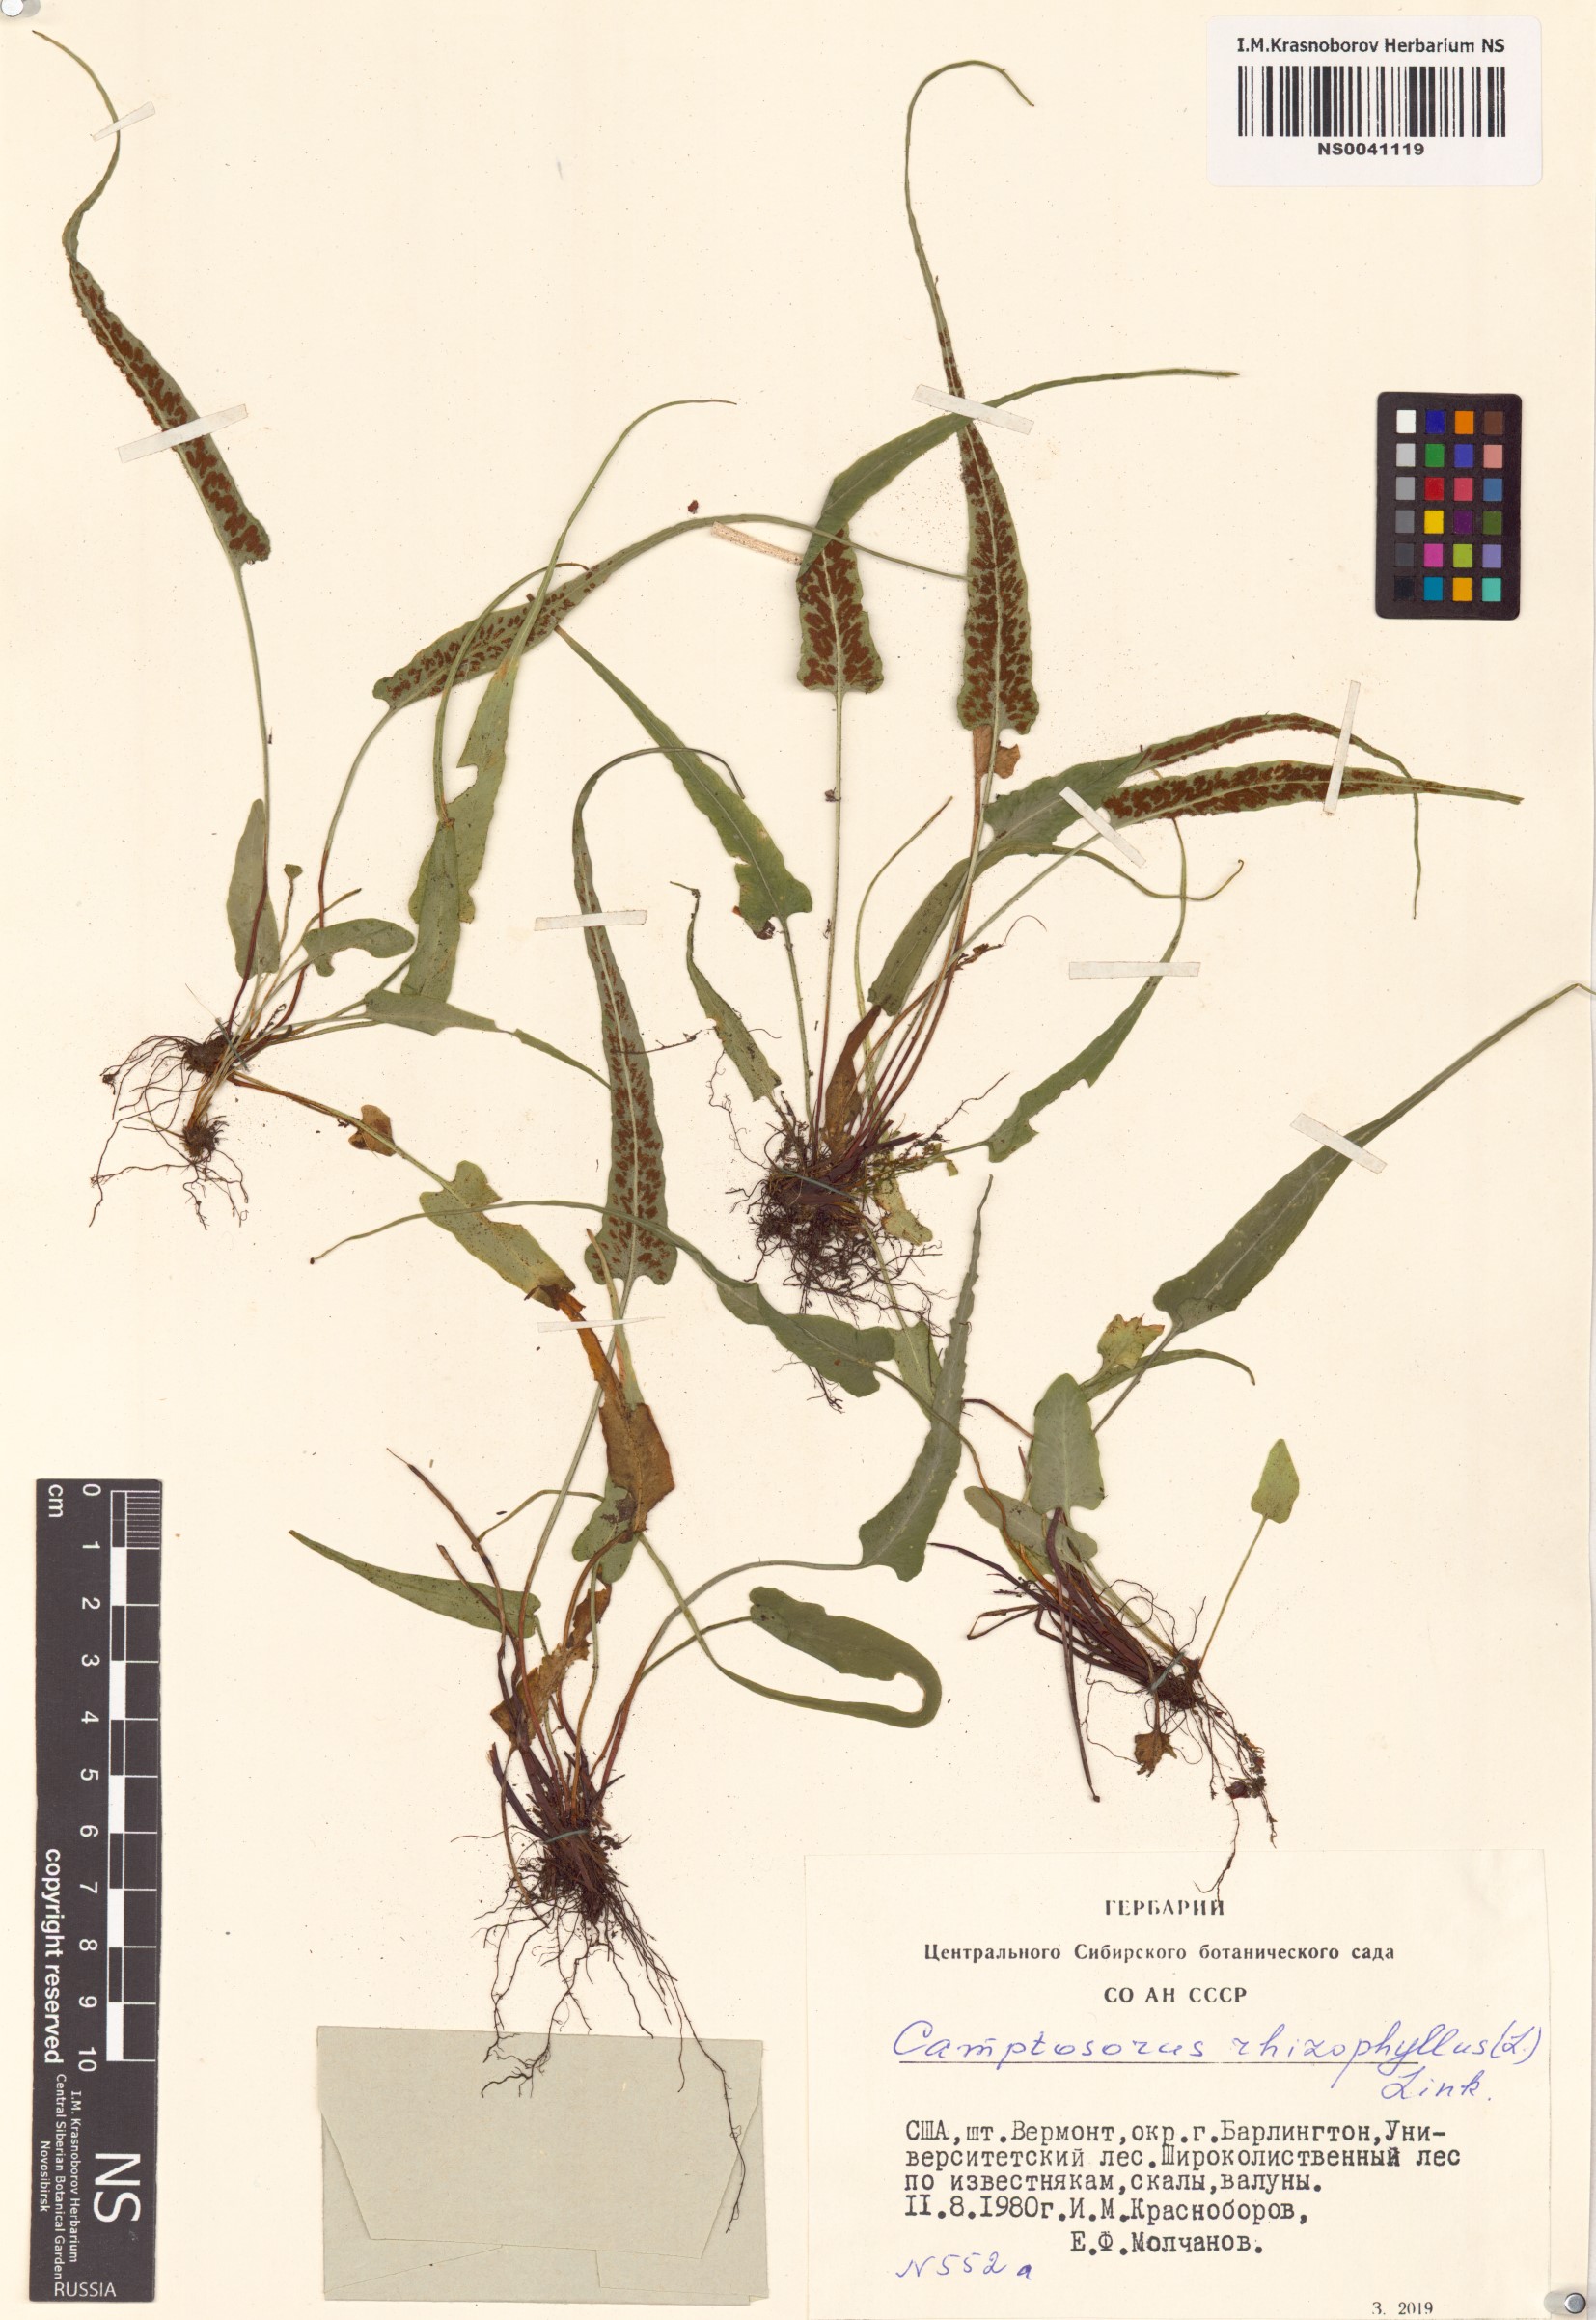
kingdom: Plantae
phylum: Tracheophyta
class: Polypodiopsida
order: Polypodiales
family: Aspleniaceae
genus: Asplenium
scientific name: Asplenium rhizophyllum
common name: Walking fern
